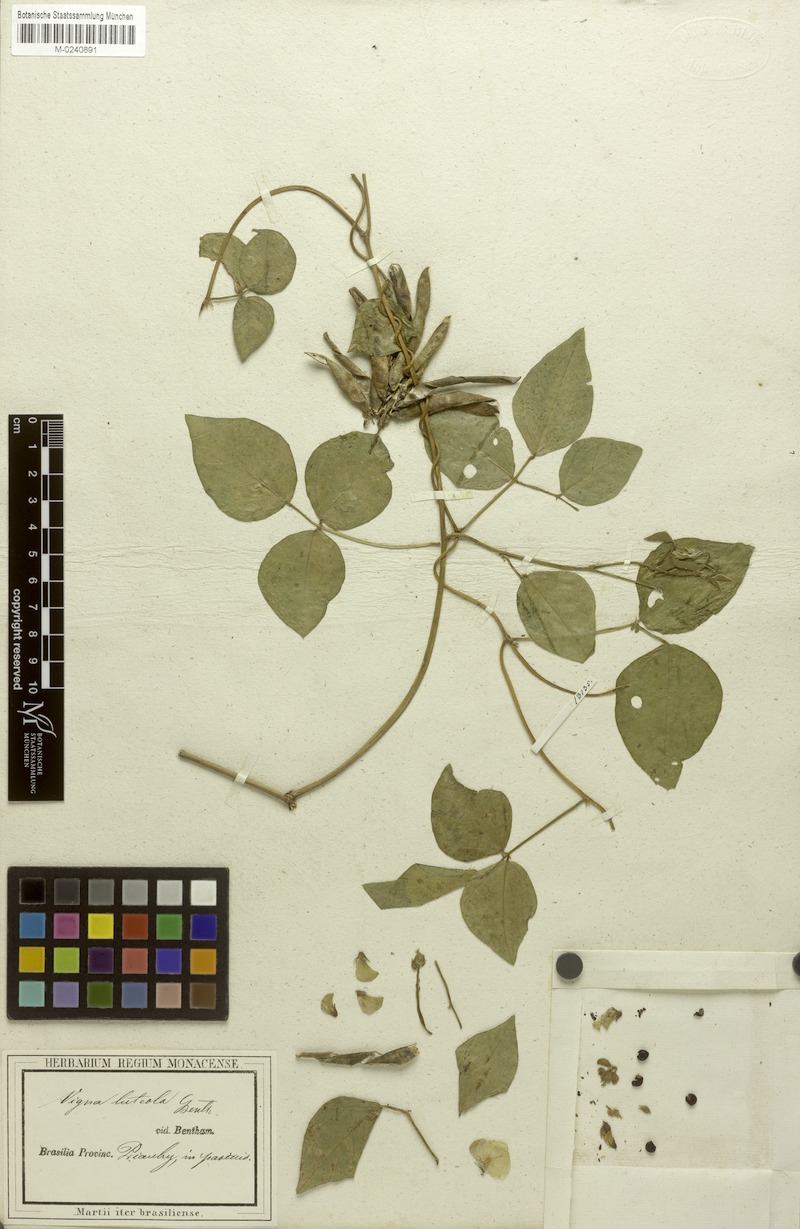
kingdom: Plantae
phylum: Tracheophyta
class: Magnoliopsida
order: Fabales
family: Fabaceae
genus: Vigna
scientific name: Vigna luteola
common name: Hairypod cowpea
